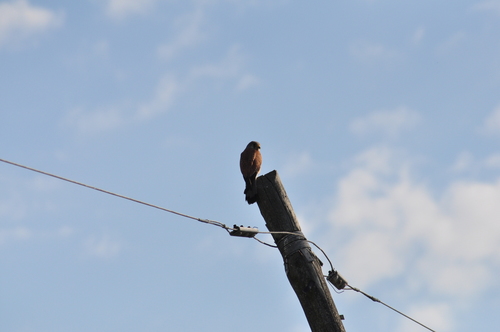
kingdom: Animalia
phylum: Chordata
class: Aves
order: Falconiformes
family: Falconidae
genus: Falco
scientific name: Falco tinnunculus
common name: Common kestrel
